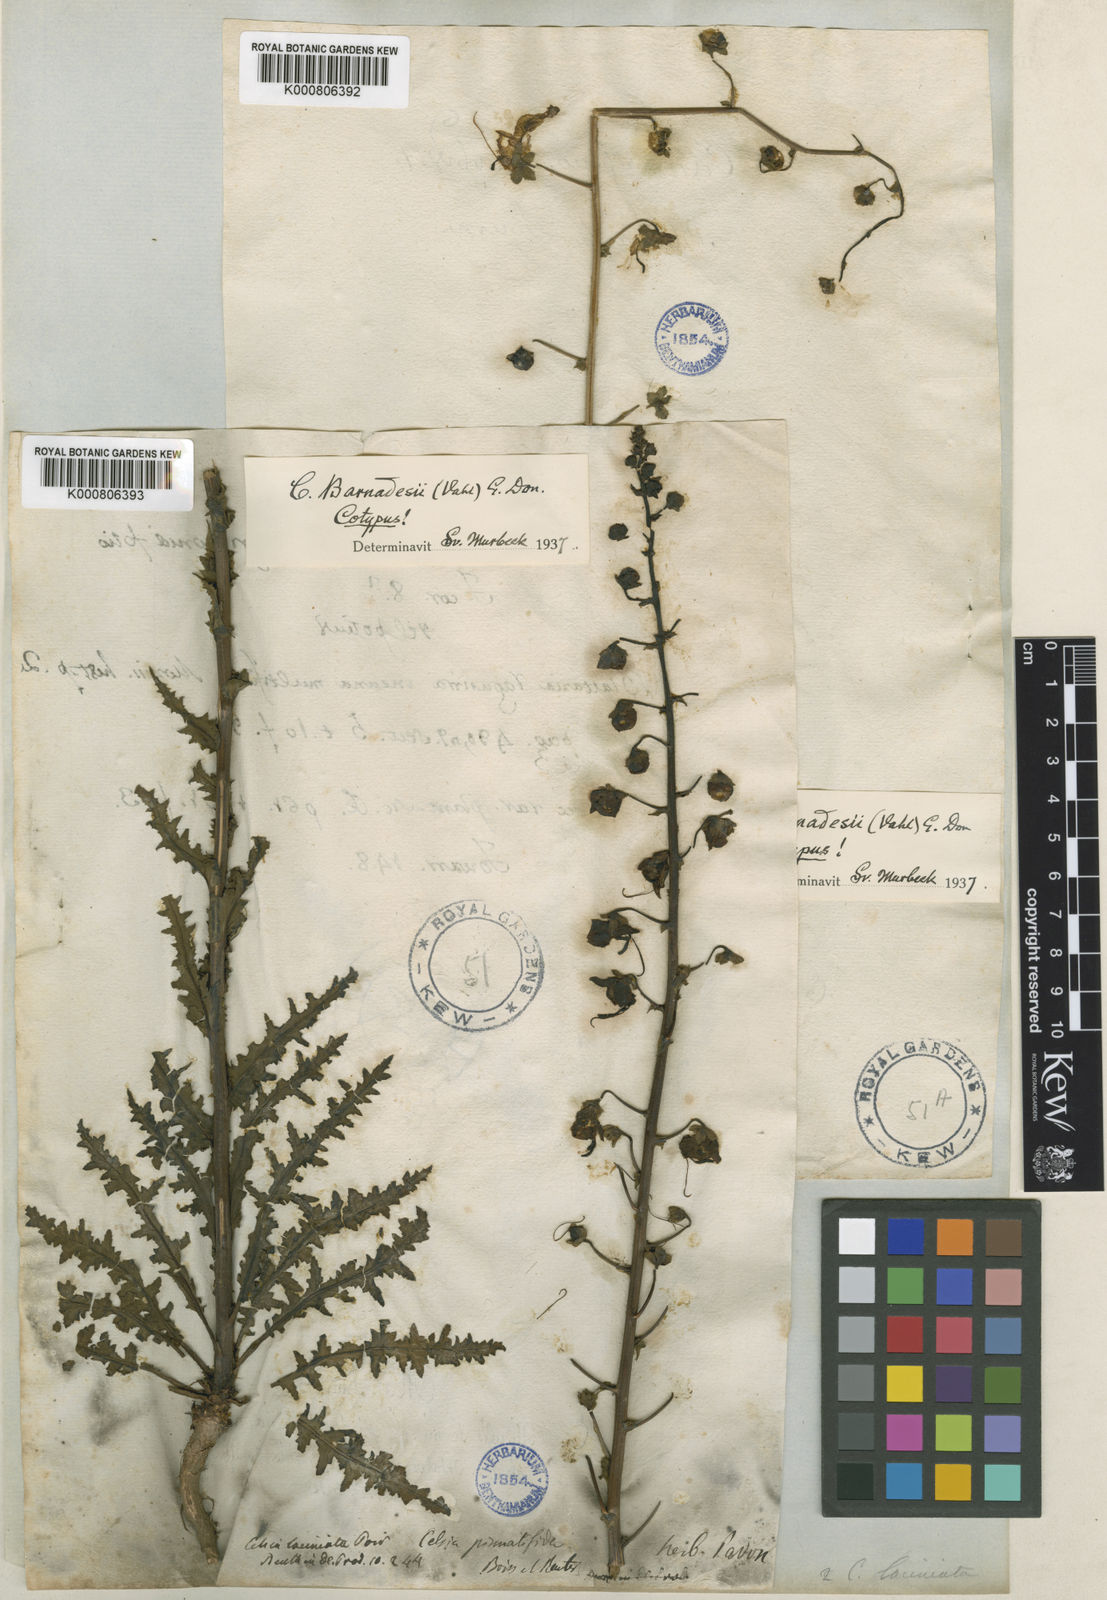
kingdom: Plantae
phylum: Tracheophyta
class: Magnoliopsida
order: Lamiales
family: Scrophulariaceae
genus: Verbascum
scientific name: Verbascum barnadesii
